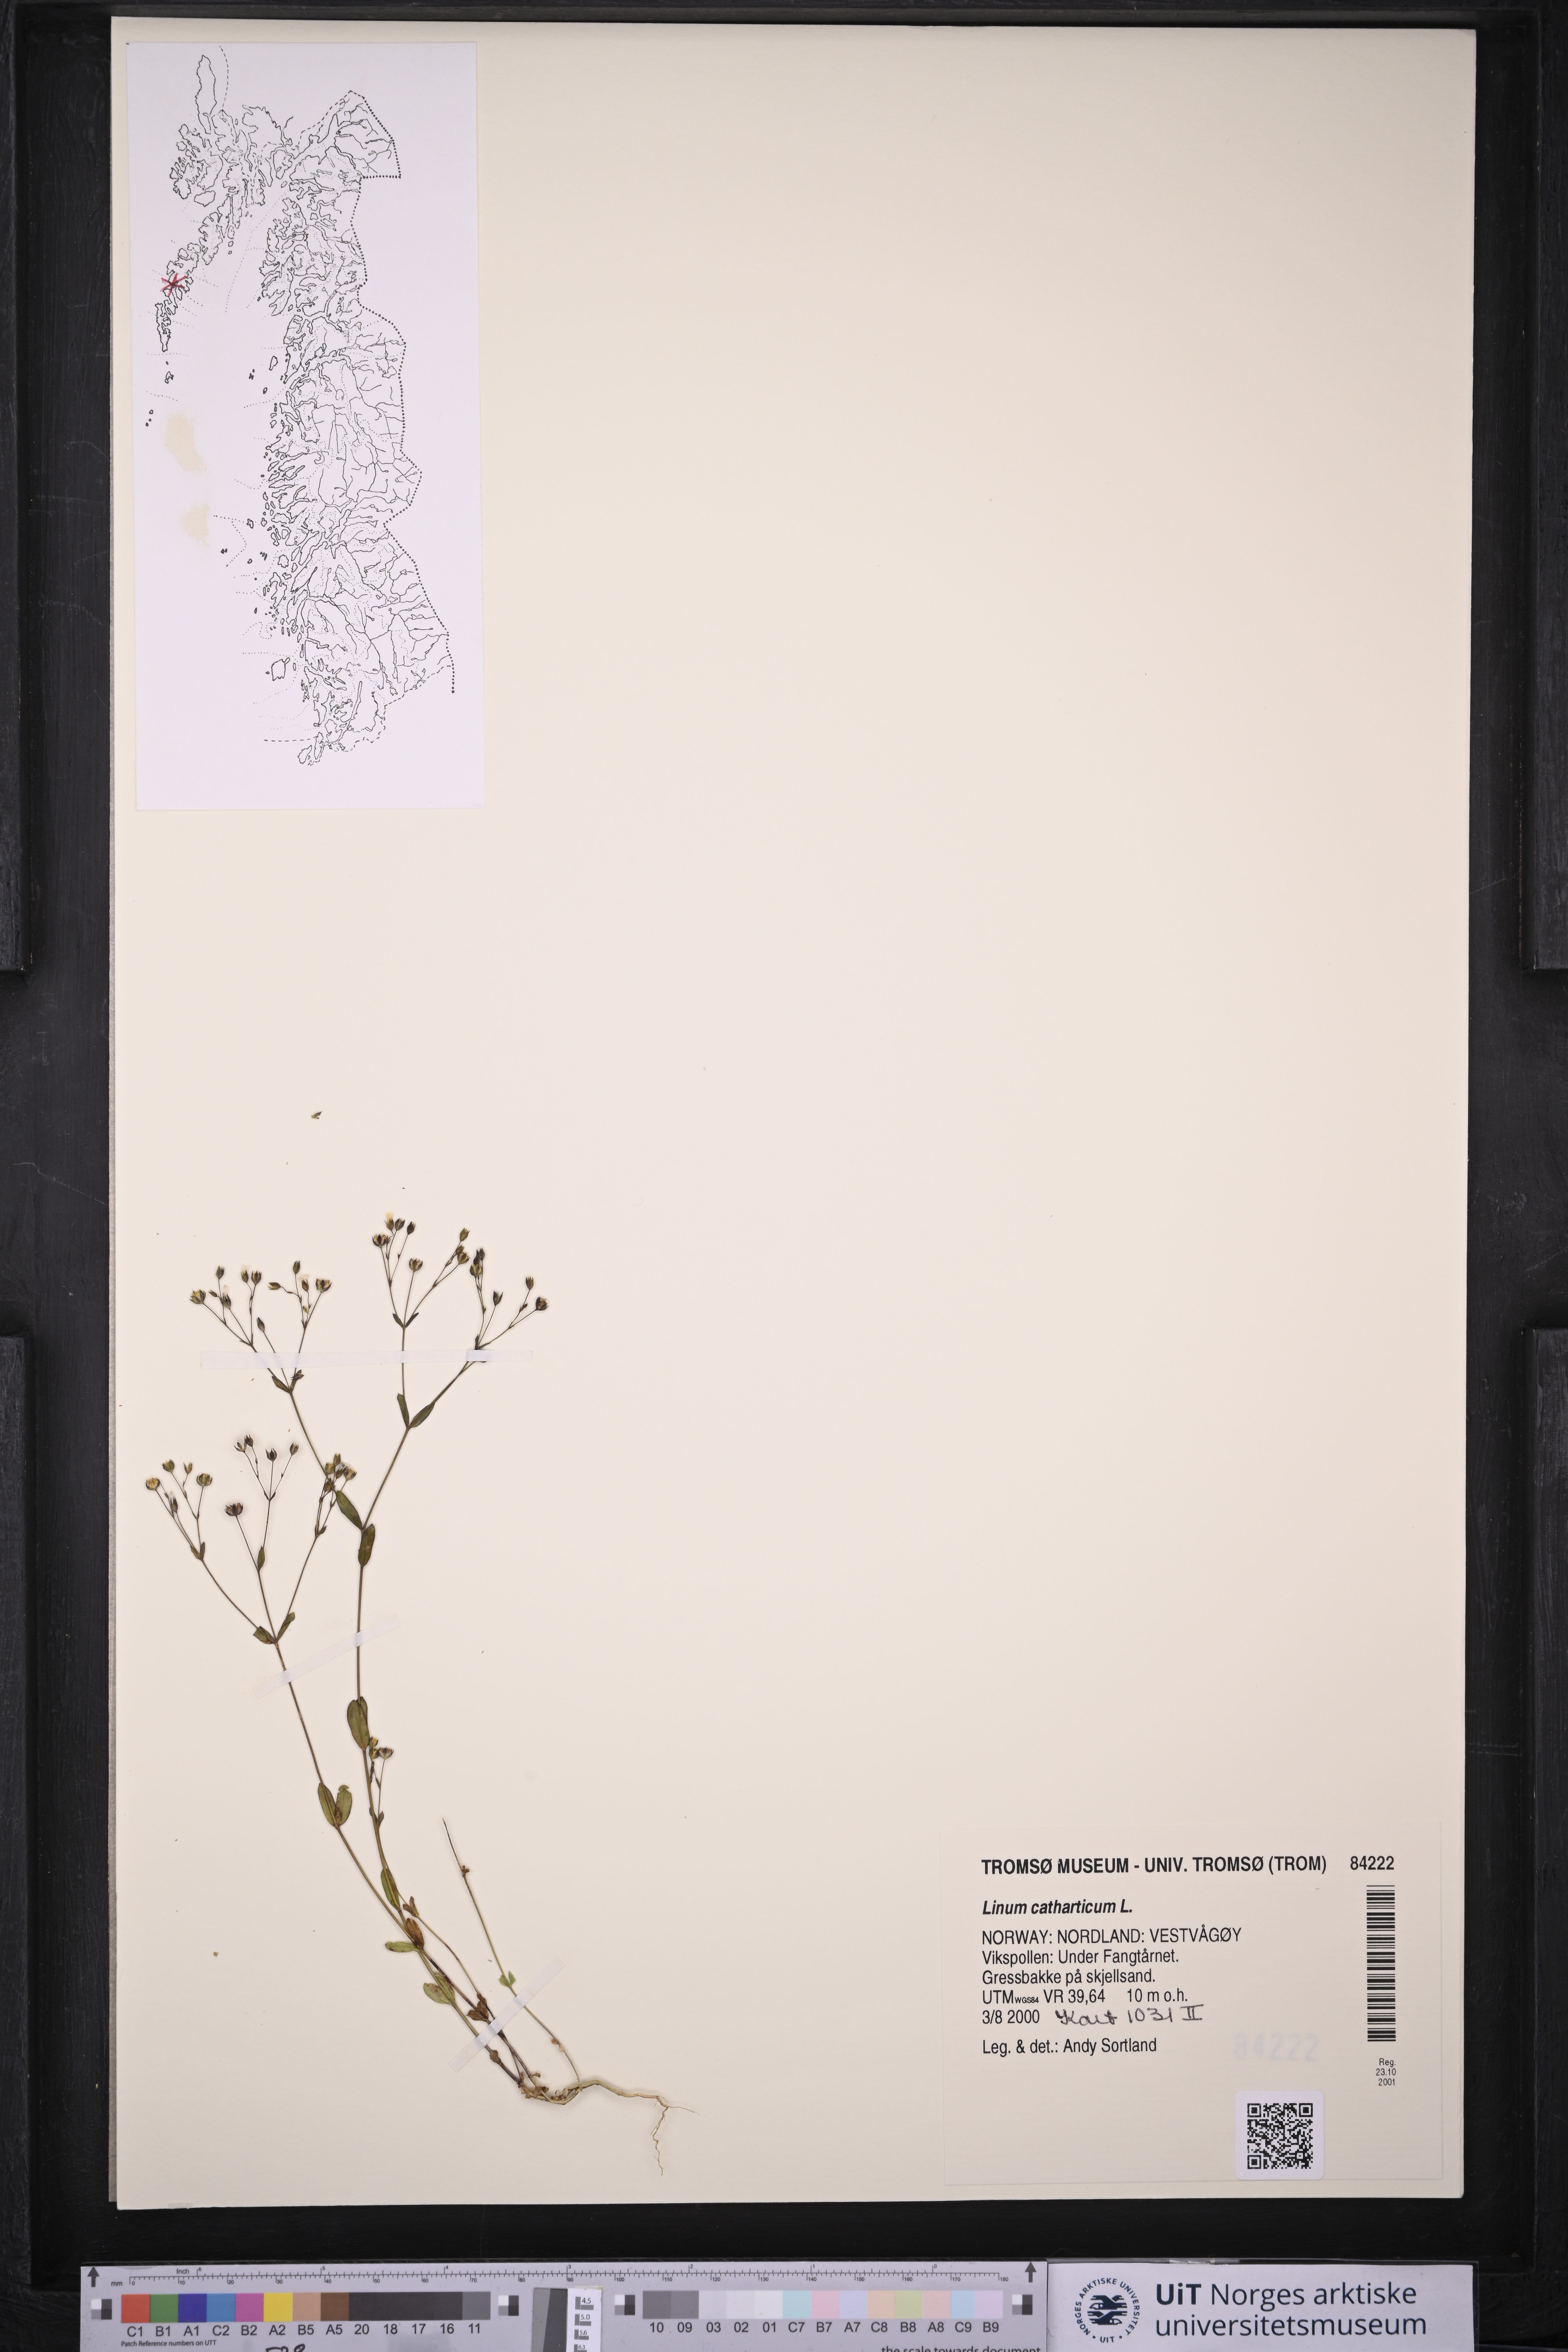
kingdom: Plantae
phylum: Tracheophyta
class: Magnoliopsida
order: Malpighiales
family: Linaceae
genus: Linum
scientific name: Linum catharticum
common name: Fairy flax
